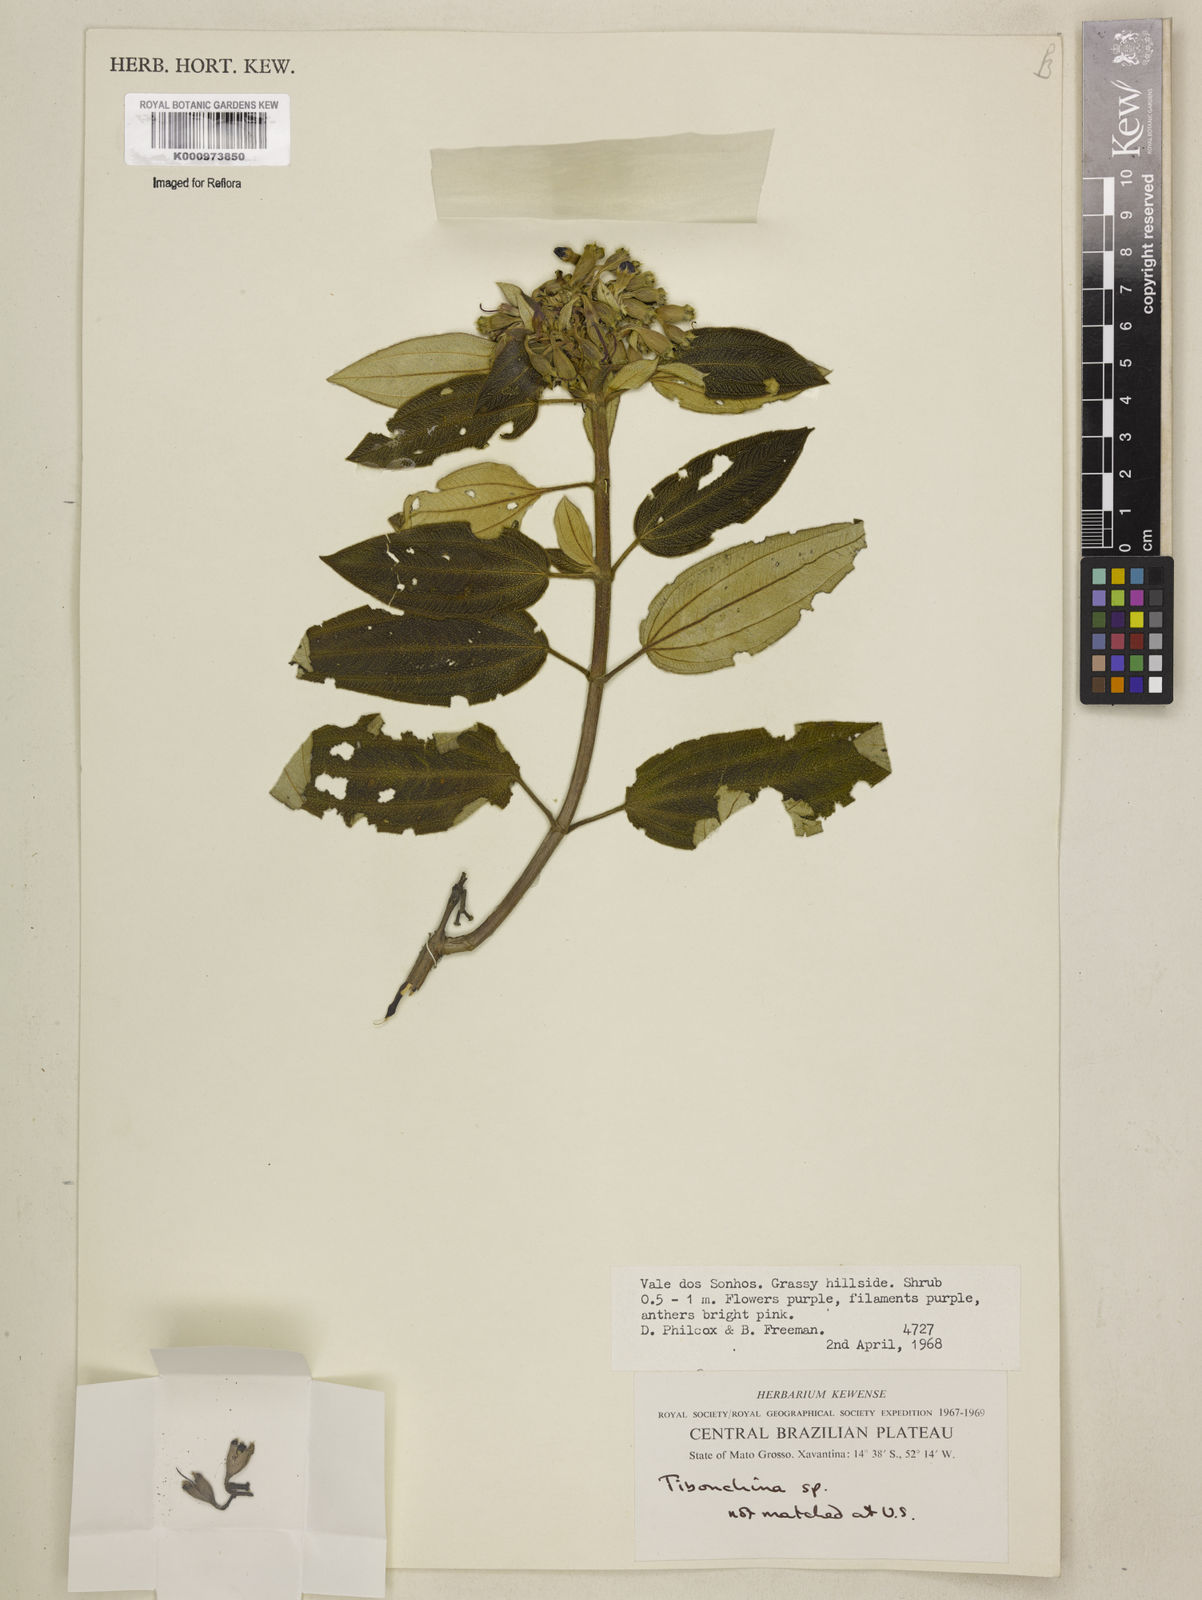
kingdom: Plantae
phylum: Tracheophyta
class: Magnoliopsida
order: Myrtales
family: Melastomataceae
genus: Tibouchina
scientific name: Tibouchina
